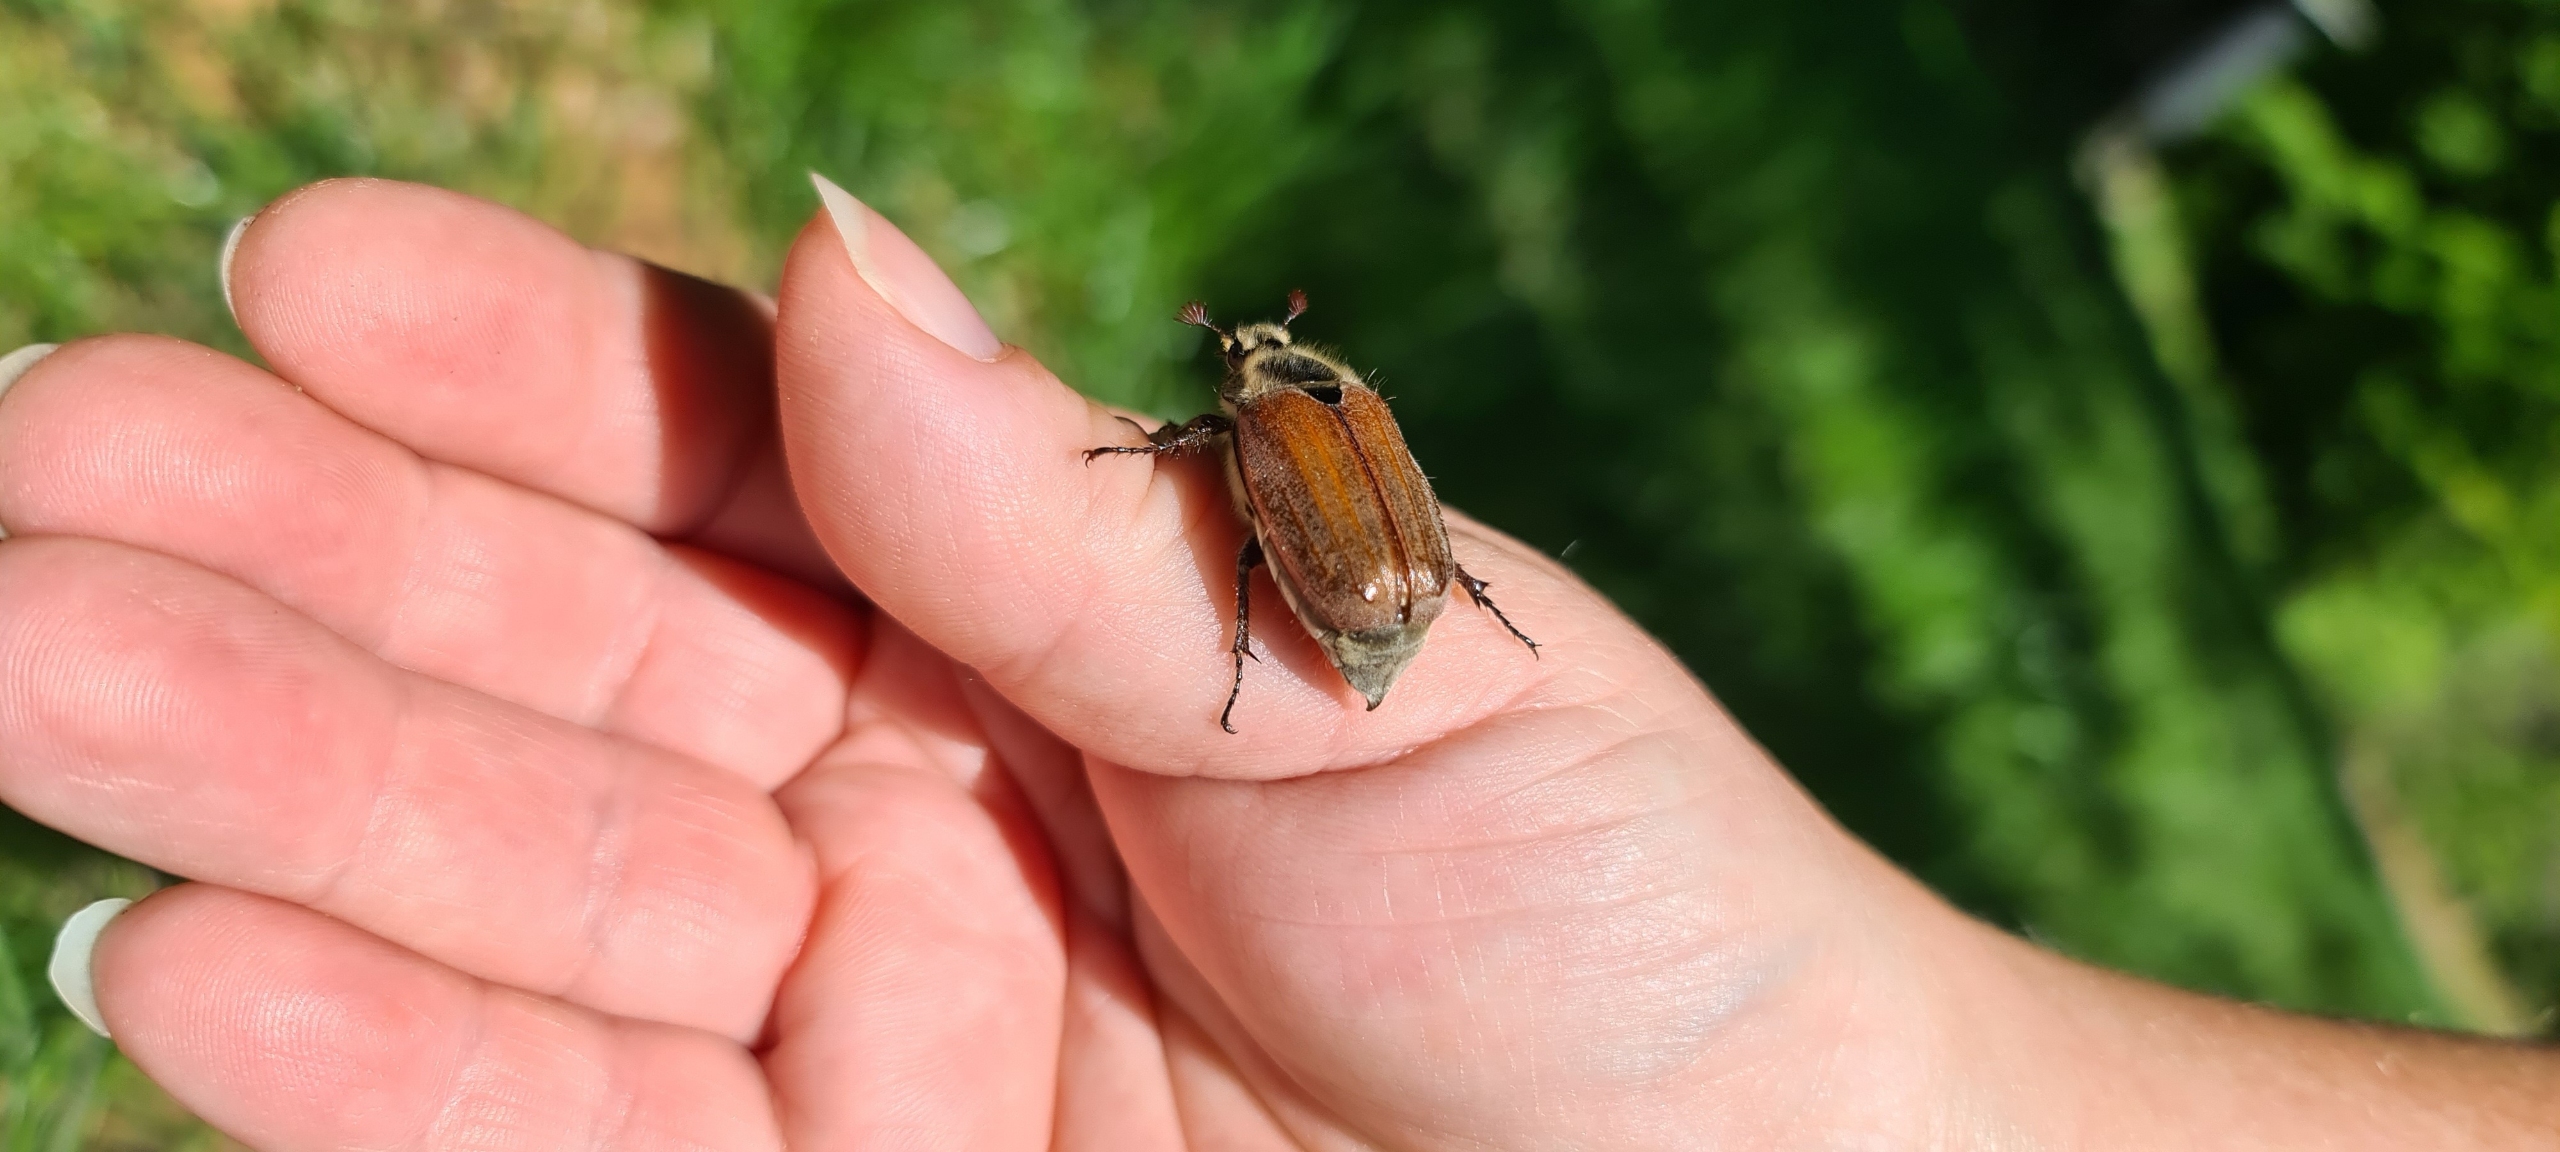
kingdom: Animalia
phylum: Arthropoda
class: Insecta
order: Coleoptera
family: Scarabaeidae
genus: Melolontha
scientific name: Melolontha hippocastani
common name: Sortrandet oldenborre
